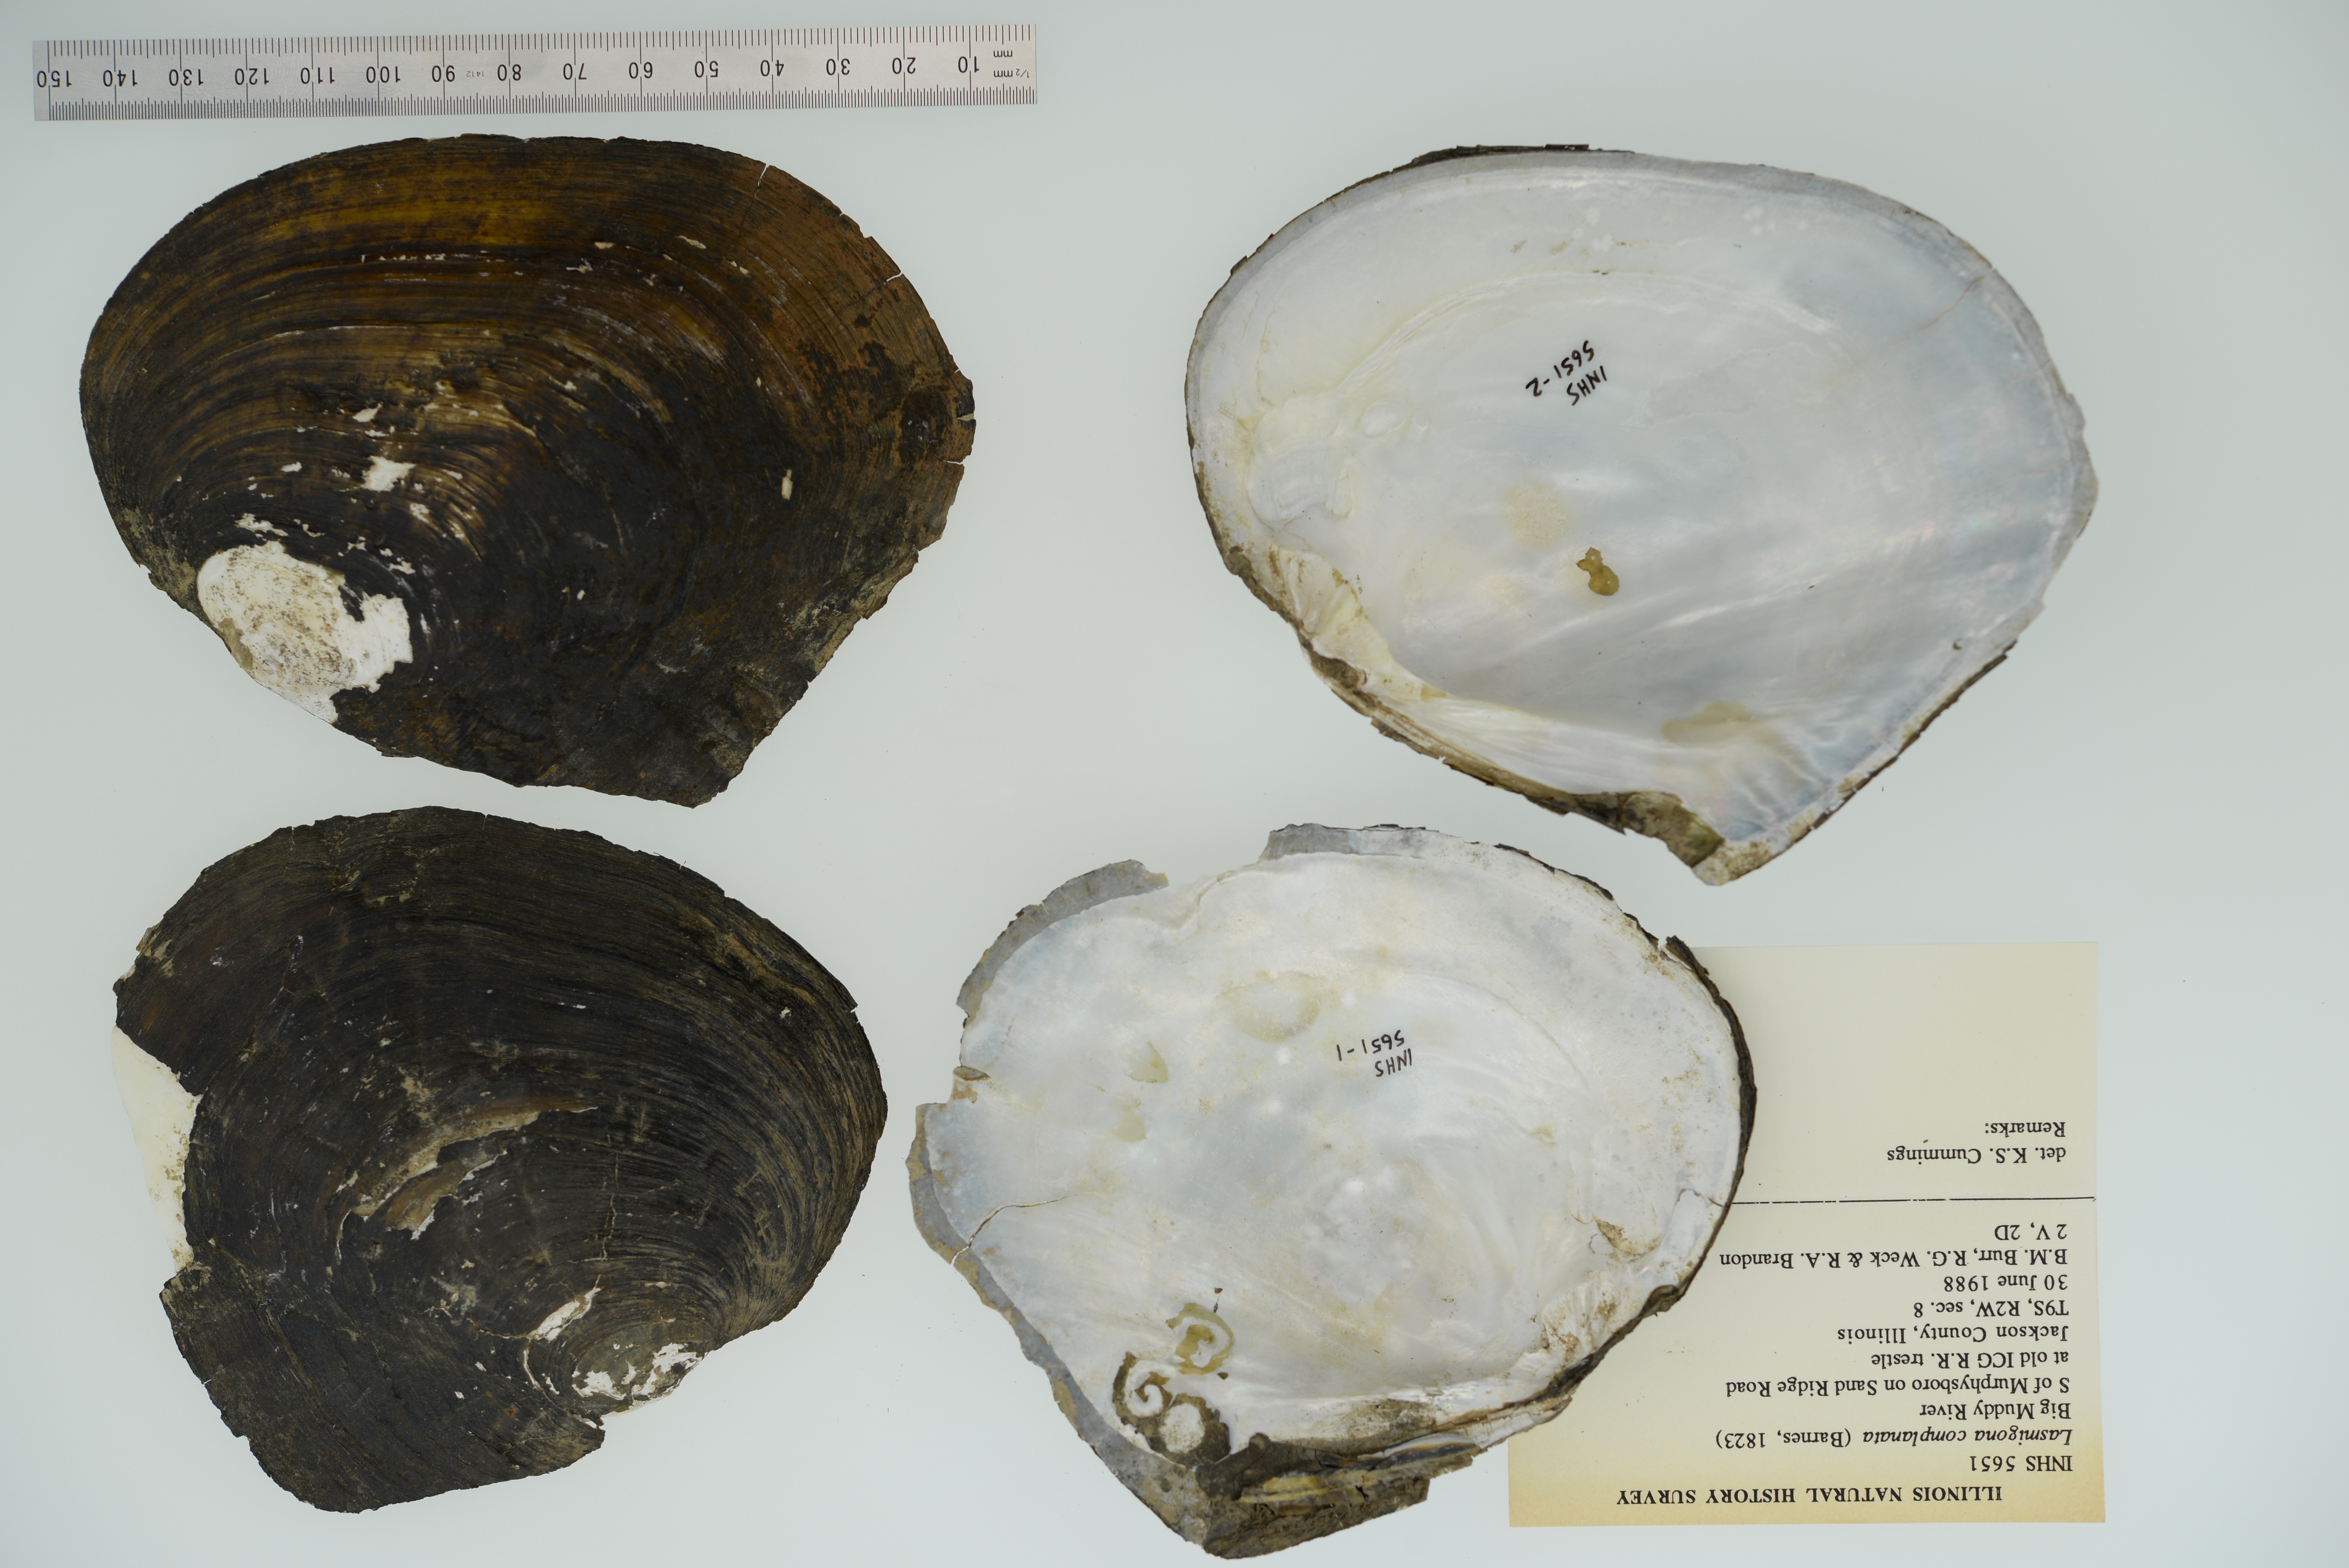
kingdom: Animalia
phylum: Mollusca
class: Bivalvia
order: Unionida
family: Unionidae
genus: Lasmigona
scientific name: Lasmigona complanata
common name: White heelsplitter
